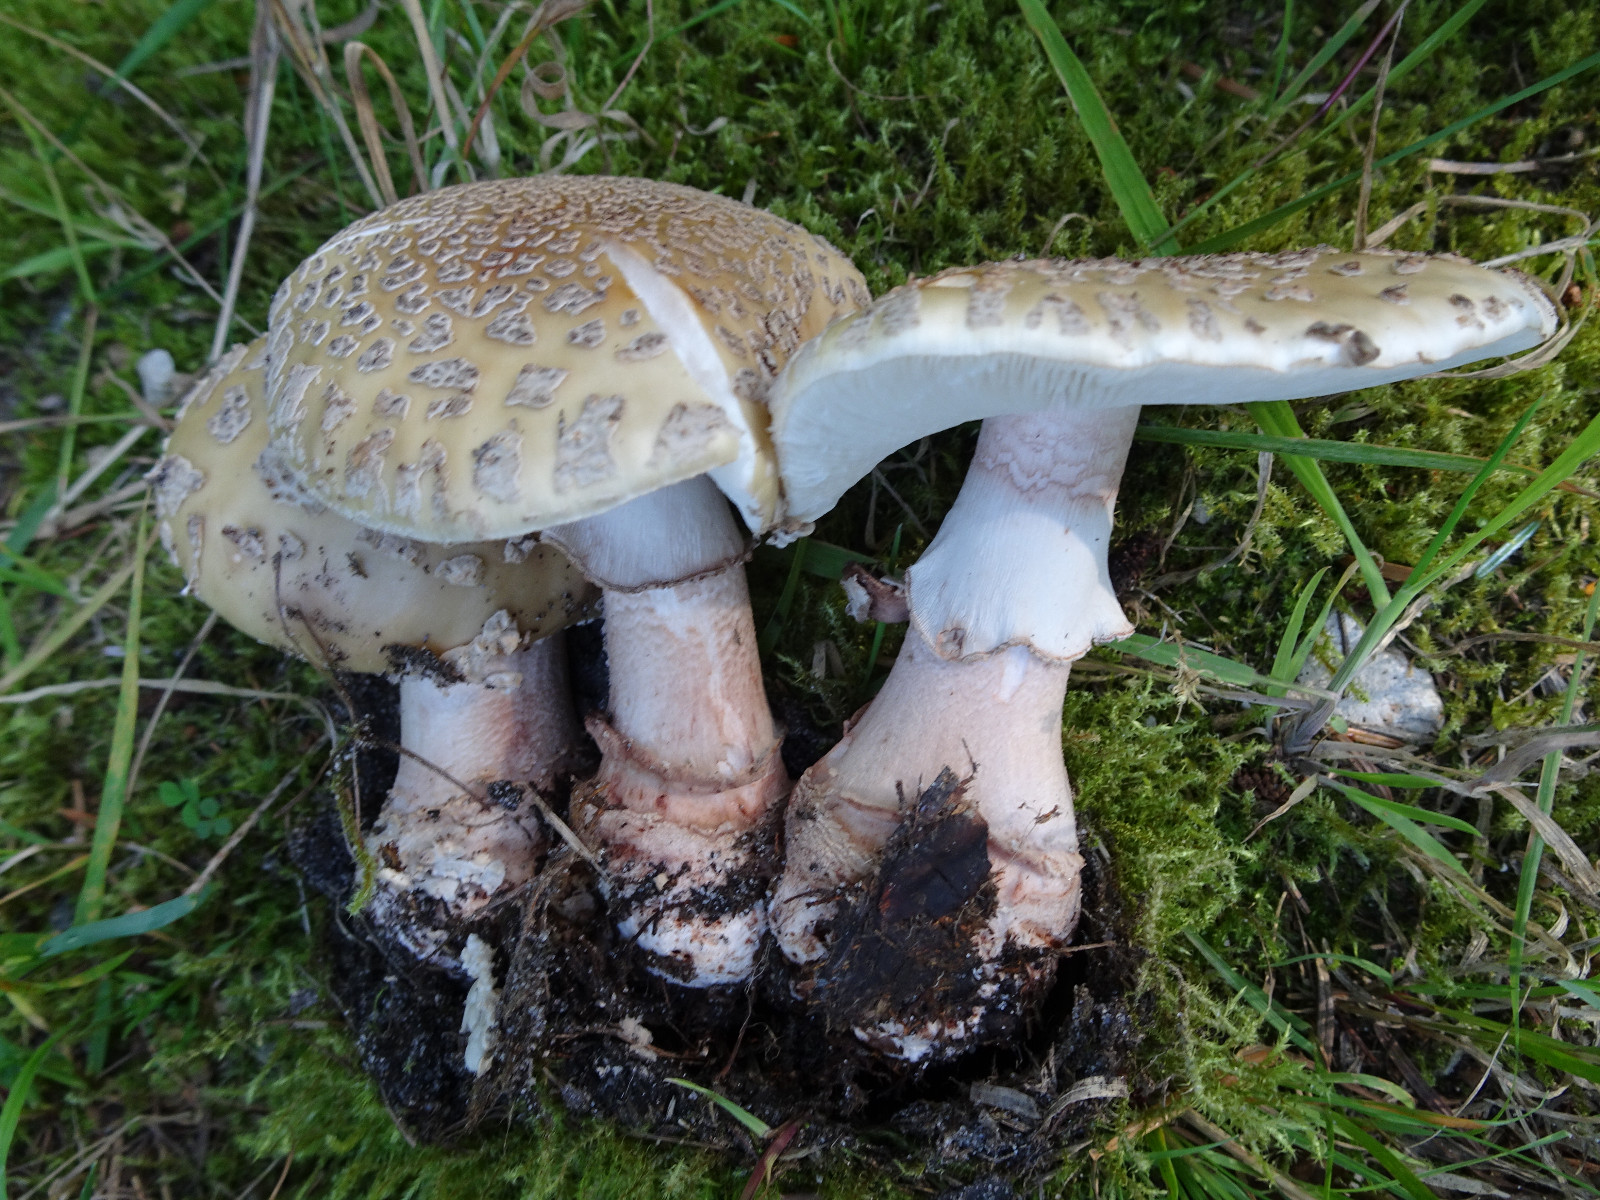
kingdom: Fungi
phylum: Basidiomycota
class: Agaricomycetes
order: Agaricales
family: Amanitaceae
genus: Amanita
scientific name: Amanita rubescens
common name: rødmende fluesvamp
